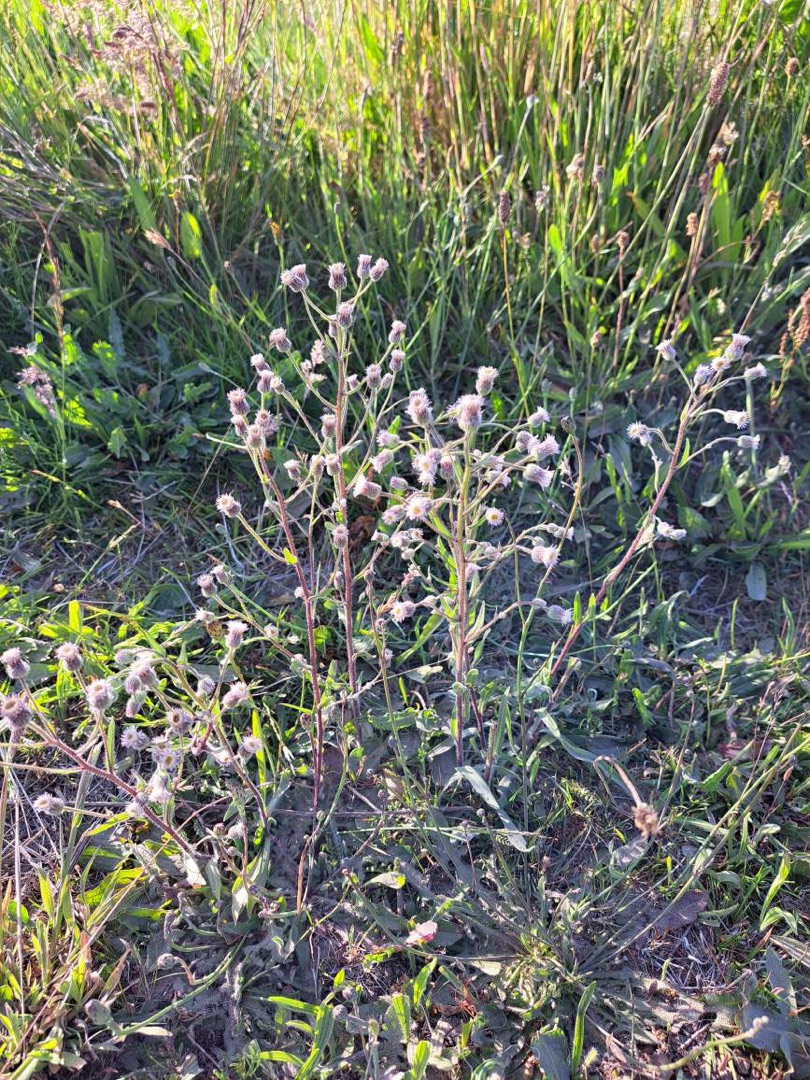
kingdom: Plantae
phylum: Tracheophyta
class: Magnoliopsida
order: Asterales
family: Asteraceae
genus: Erigeron
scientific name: Erigeron acris
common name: Bitter bakkestjerne
